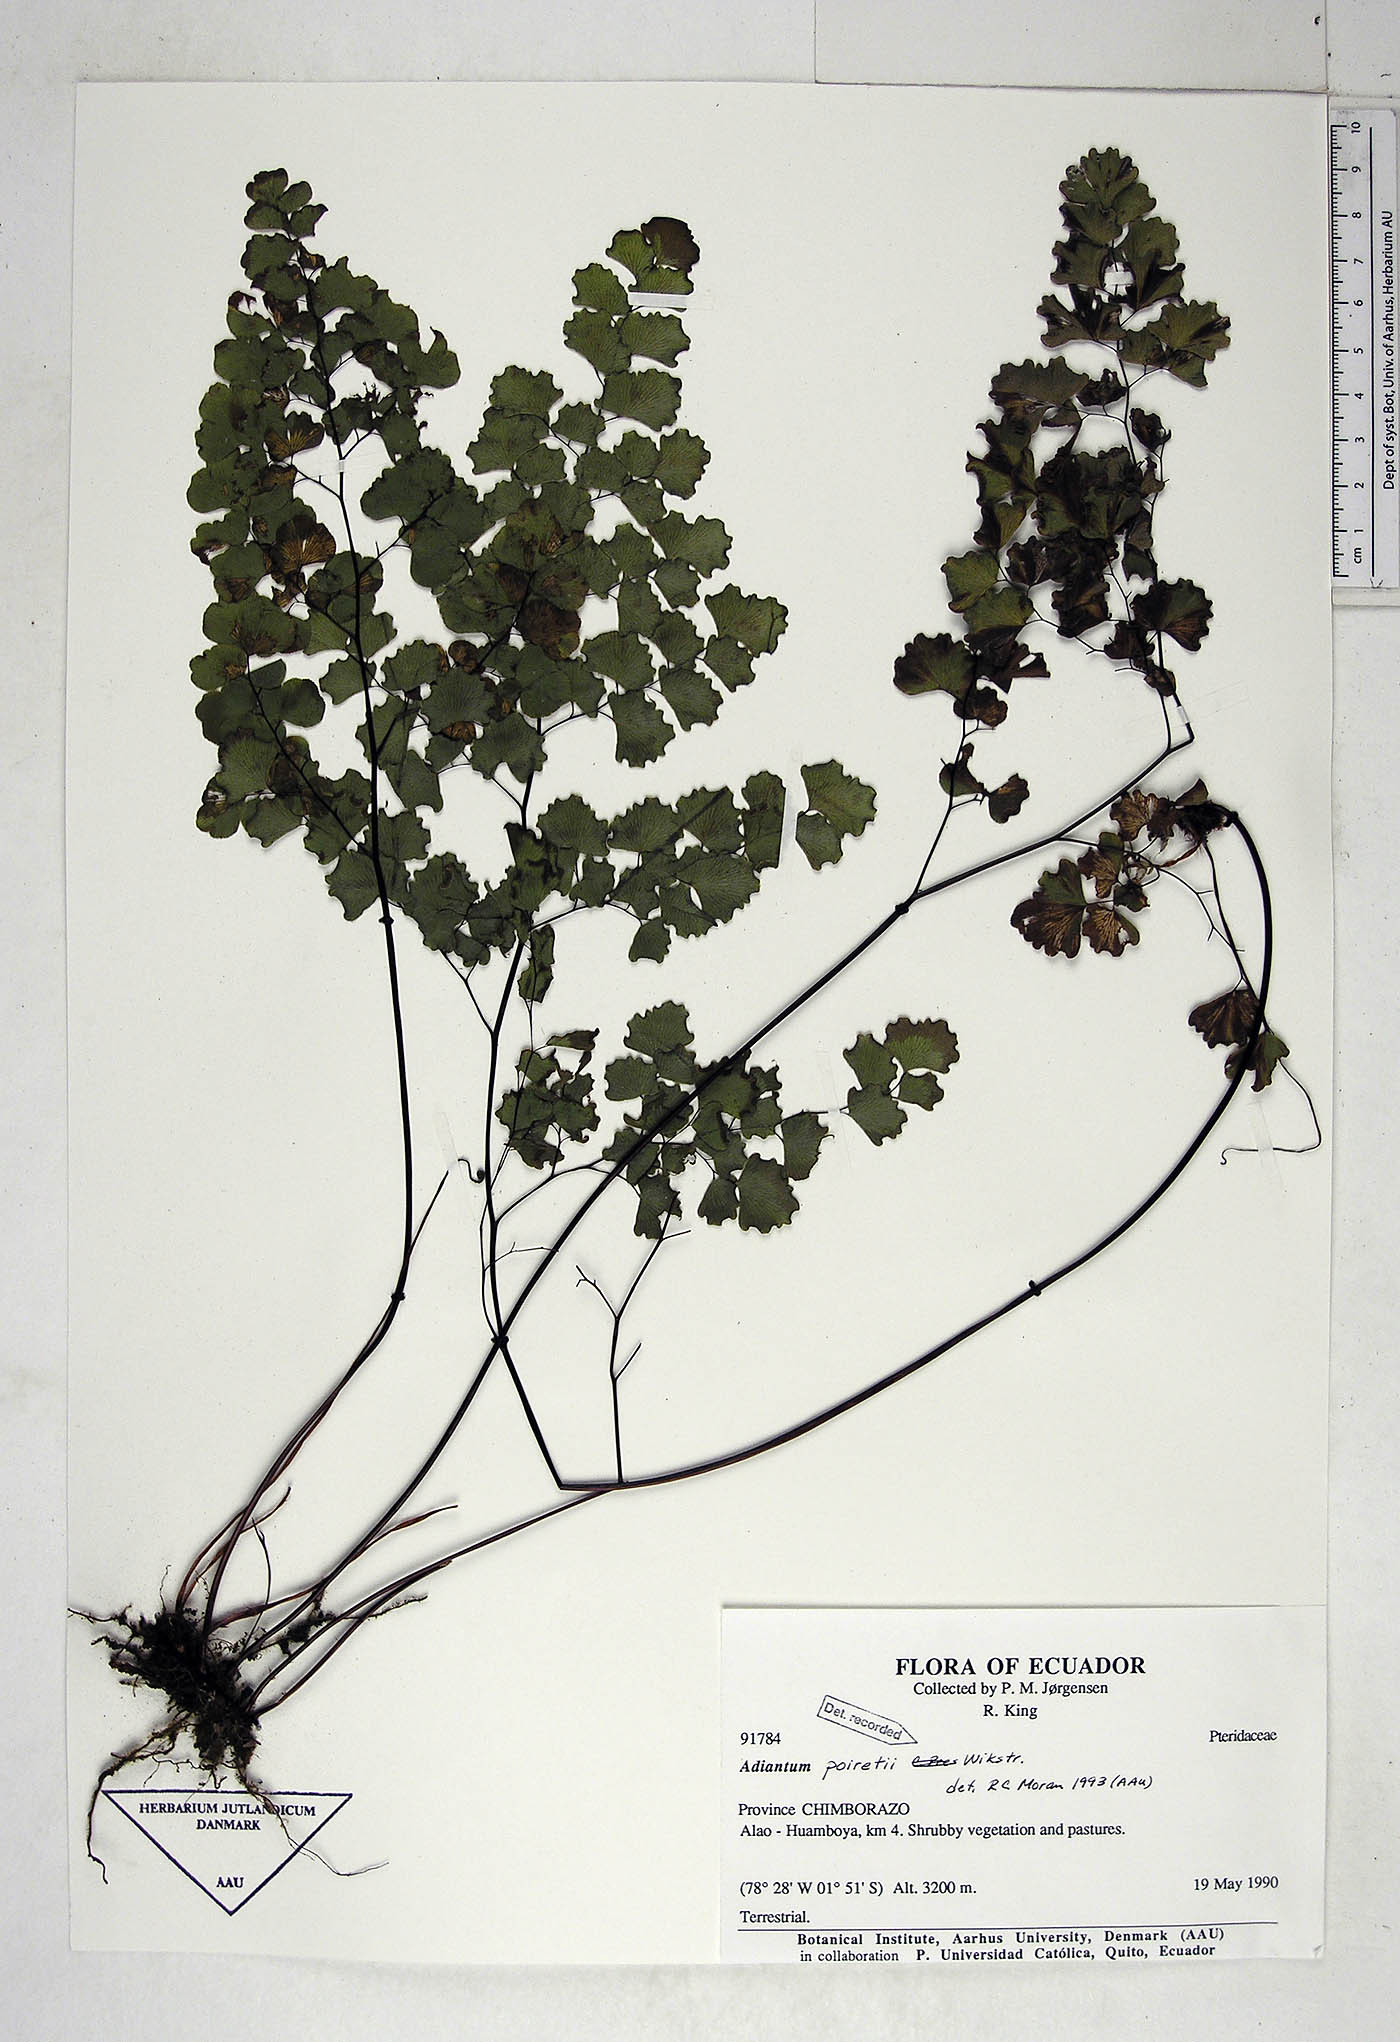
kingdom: Plantae
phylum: Tracheophyta
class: Polypodiopsida
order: Polypodiales
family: Pteridaceae
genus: Adiantum
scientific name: Adiantum poiretii
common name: Mexican maidenhair
